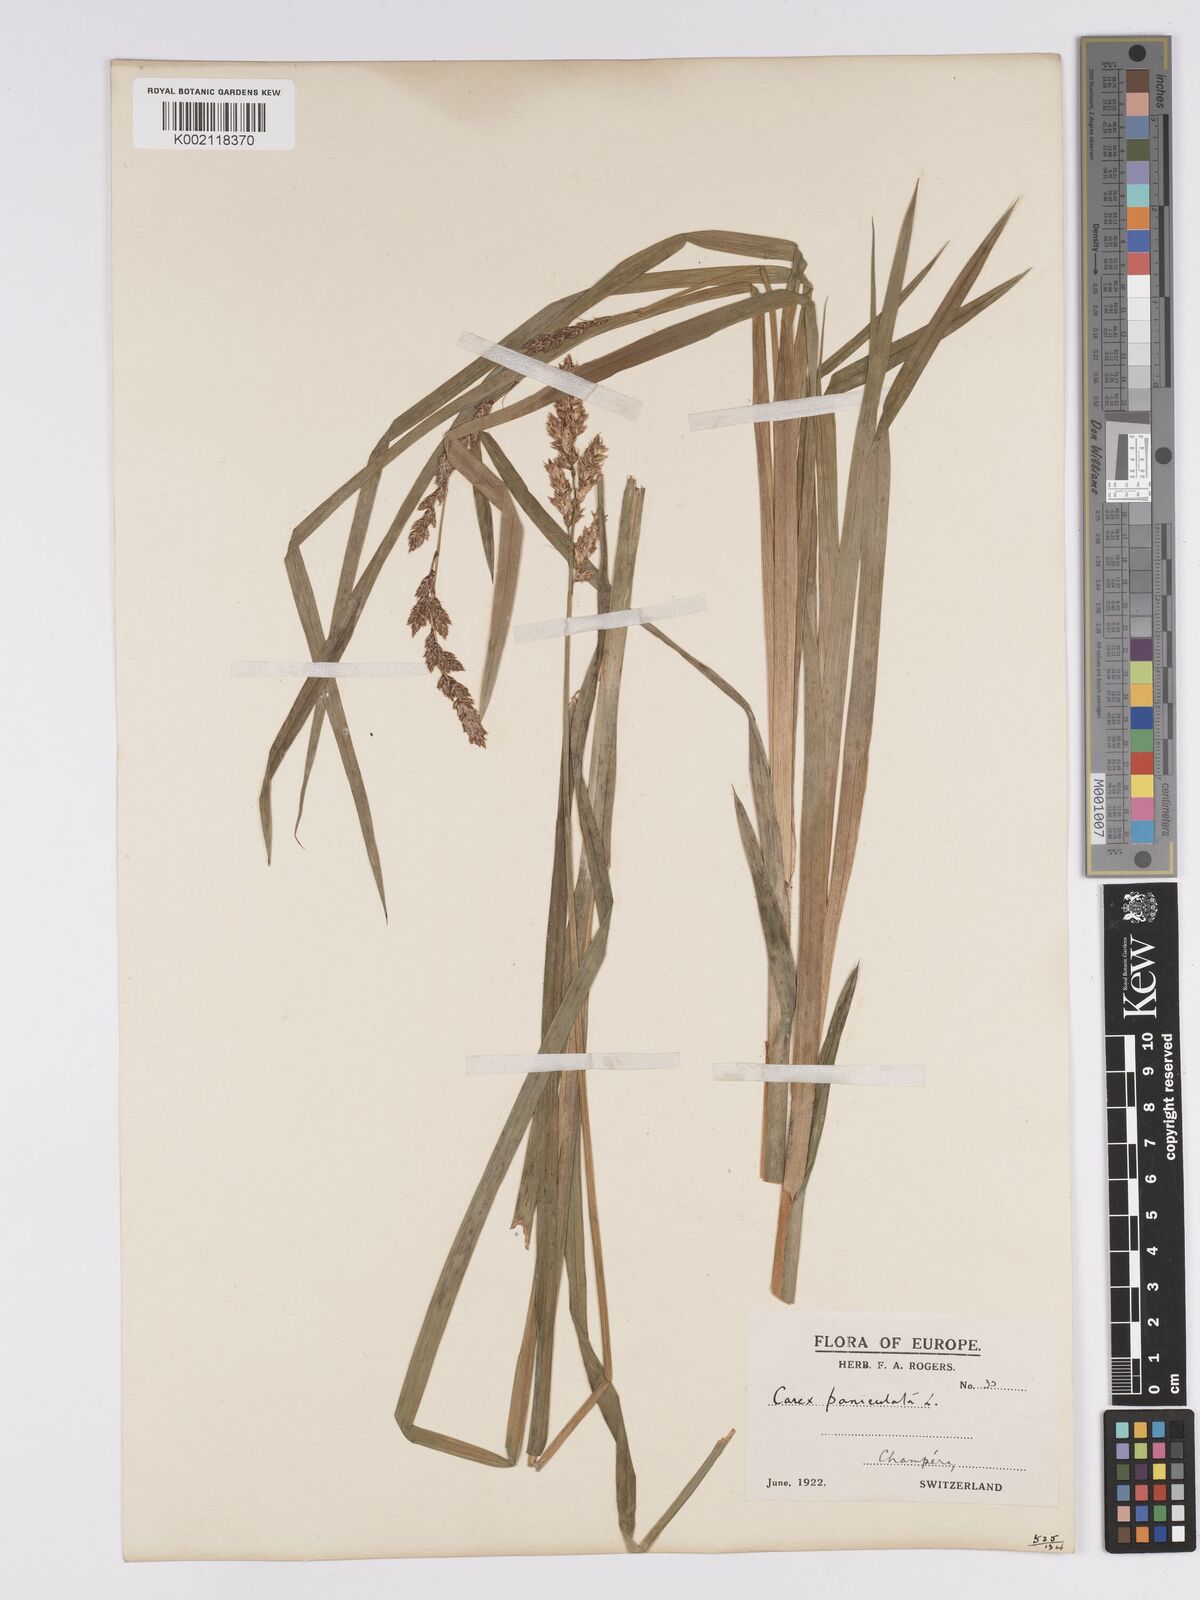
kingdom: Plantae
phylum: Tracheophyta
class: Liliopsida
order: Poales
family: Cyperaceae
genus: Carex
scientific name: Carex paniculata
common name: Greater tussock-sedge
